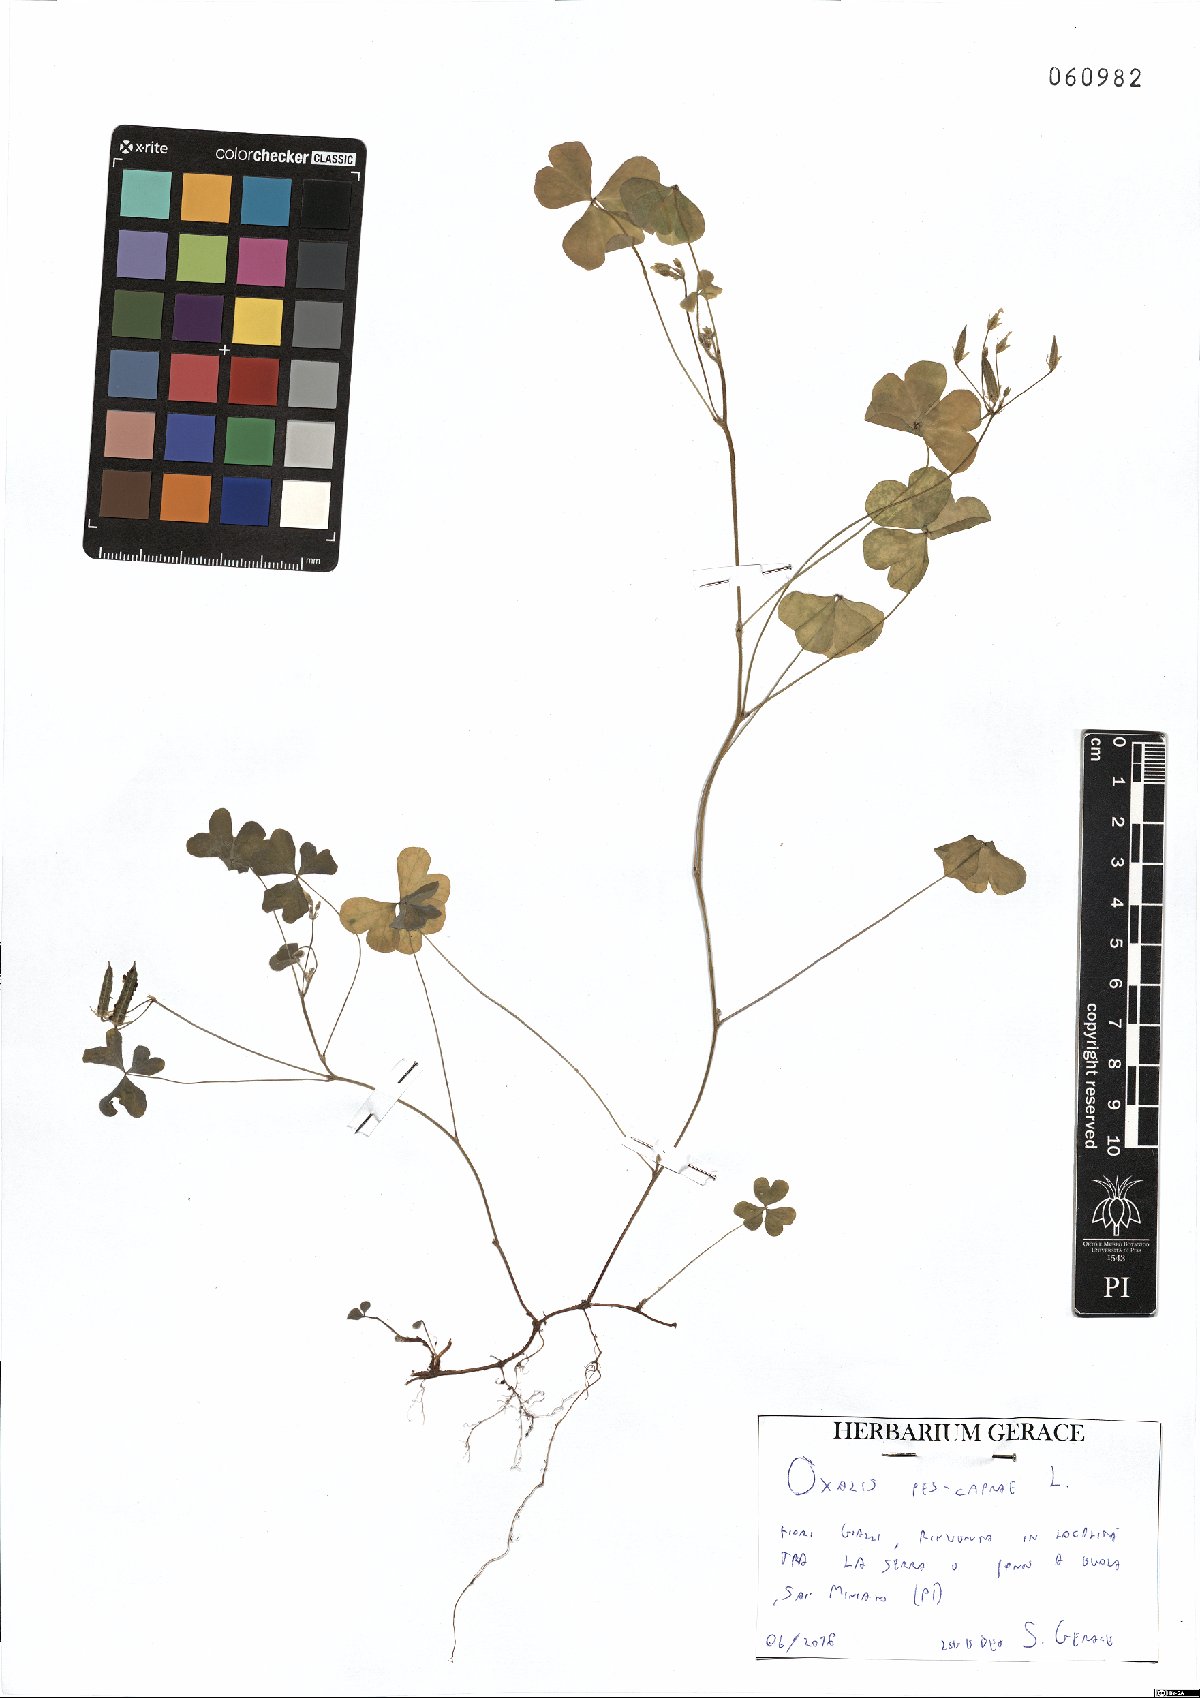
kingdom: Plantae
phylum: Tracheophyta
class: Magnoliopsida
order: Oxalidales
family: Oxalidaceae
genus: Oxalis
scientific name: Oxalis pes-caprae
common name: Bermuda-buttercup
